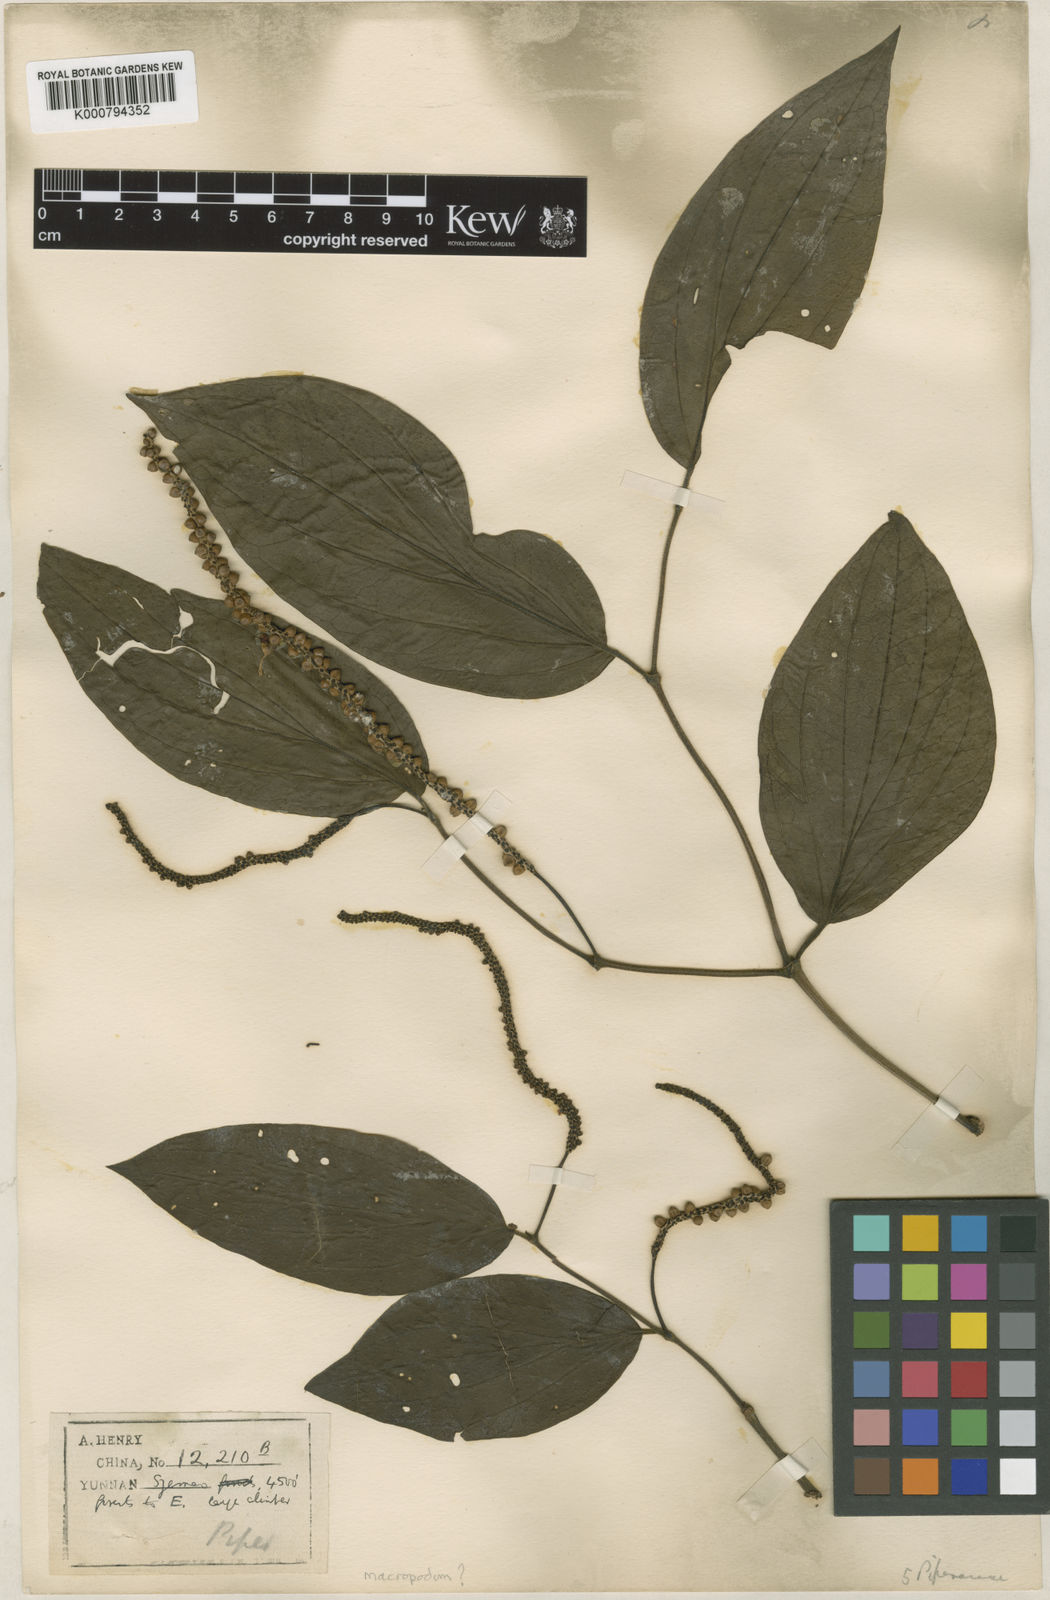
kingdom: Plantae
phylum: Tracheophyta
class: Magnoliopsida
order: Piperales
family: Piperaceae
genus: Piper
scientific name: Piper macropodum
